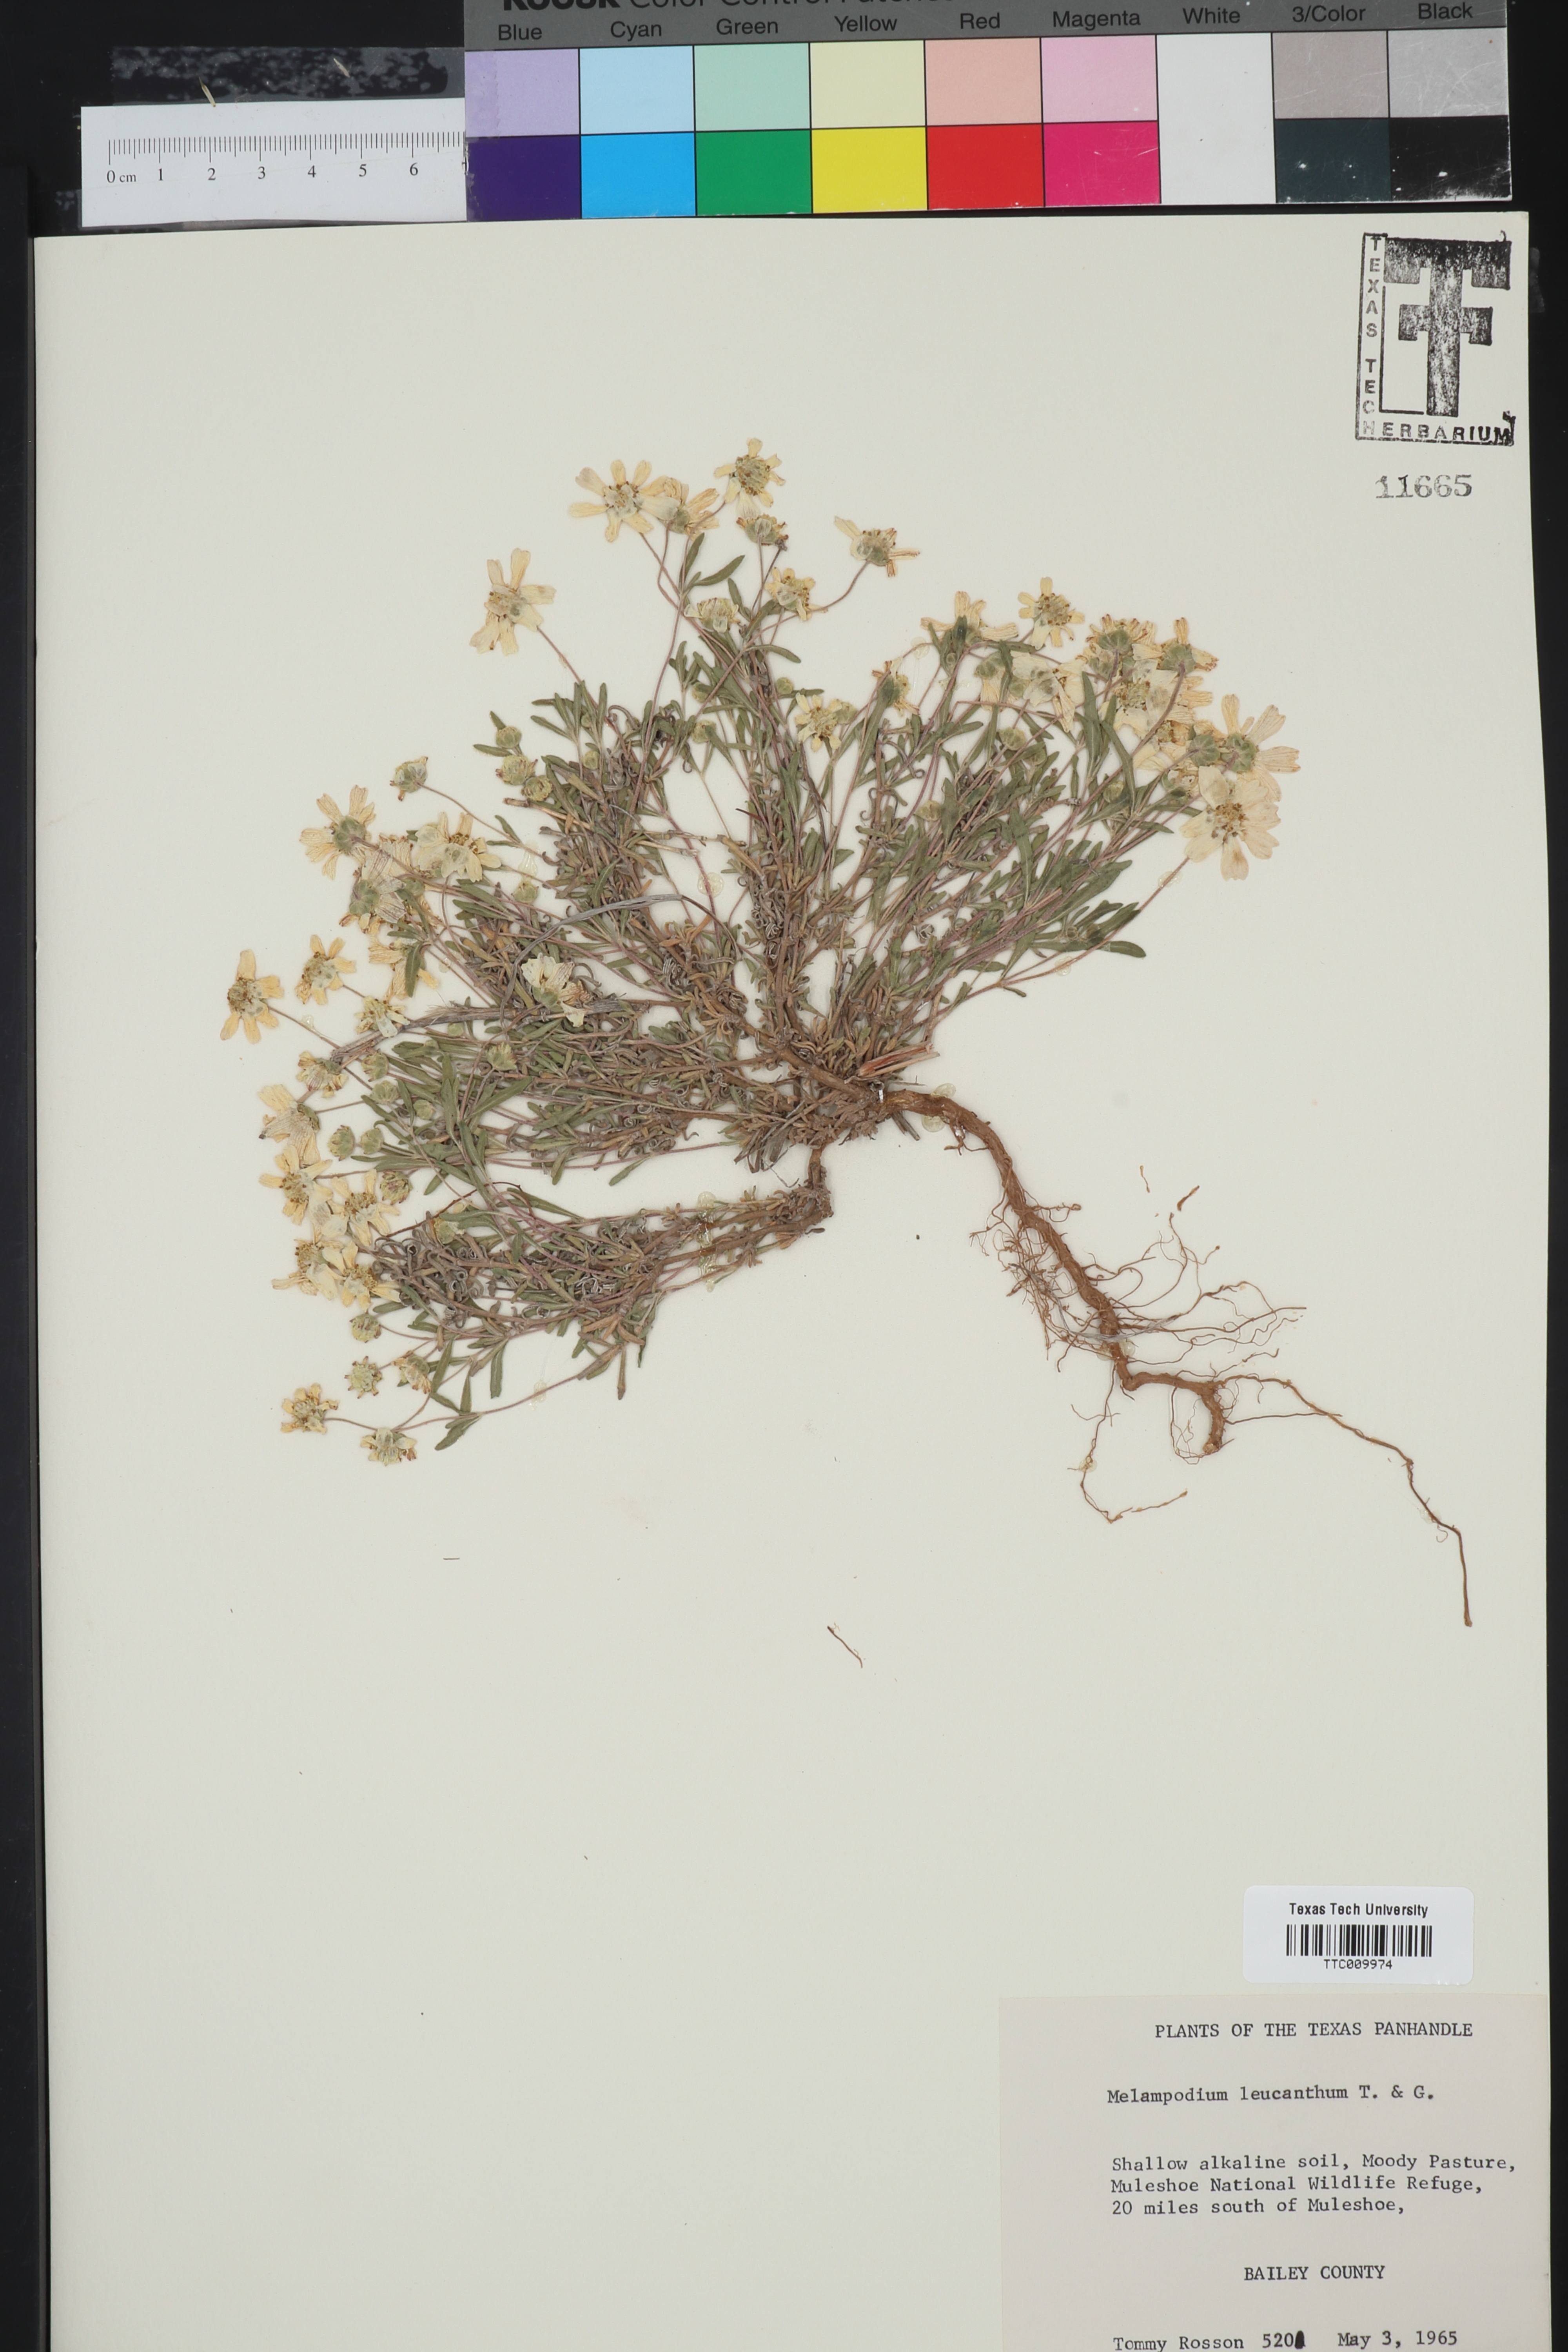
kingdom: Plantae
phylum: Tracheophyta
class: Magnoliopsida
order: Asterales
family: Asteraceae
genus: Melampodium
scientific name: Melampodium leucanthum
